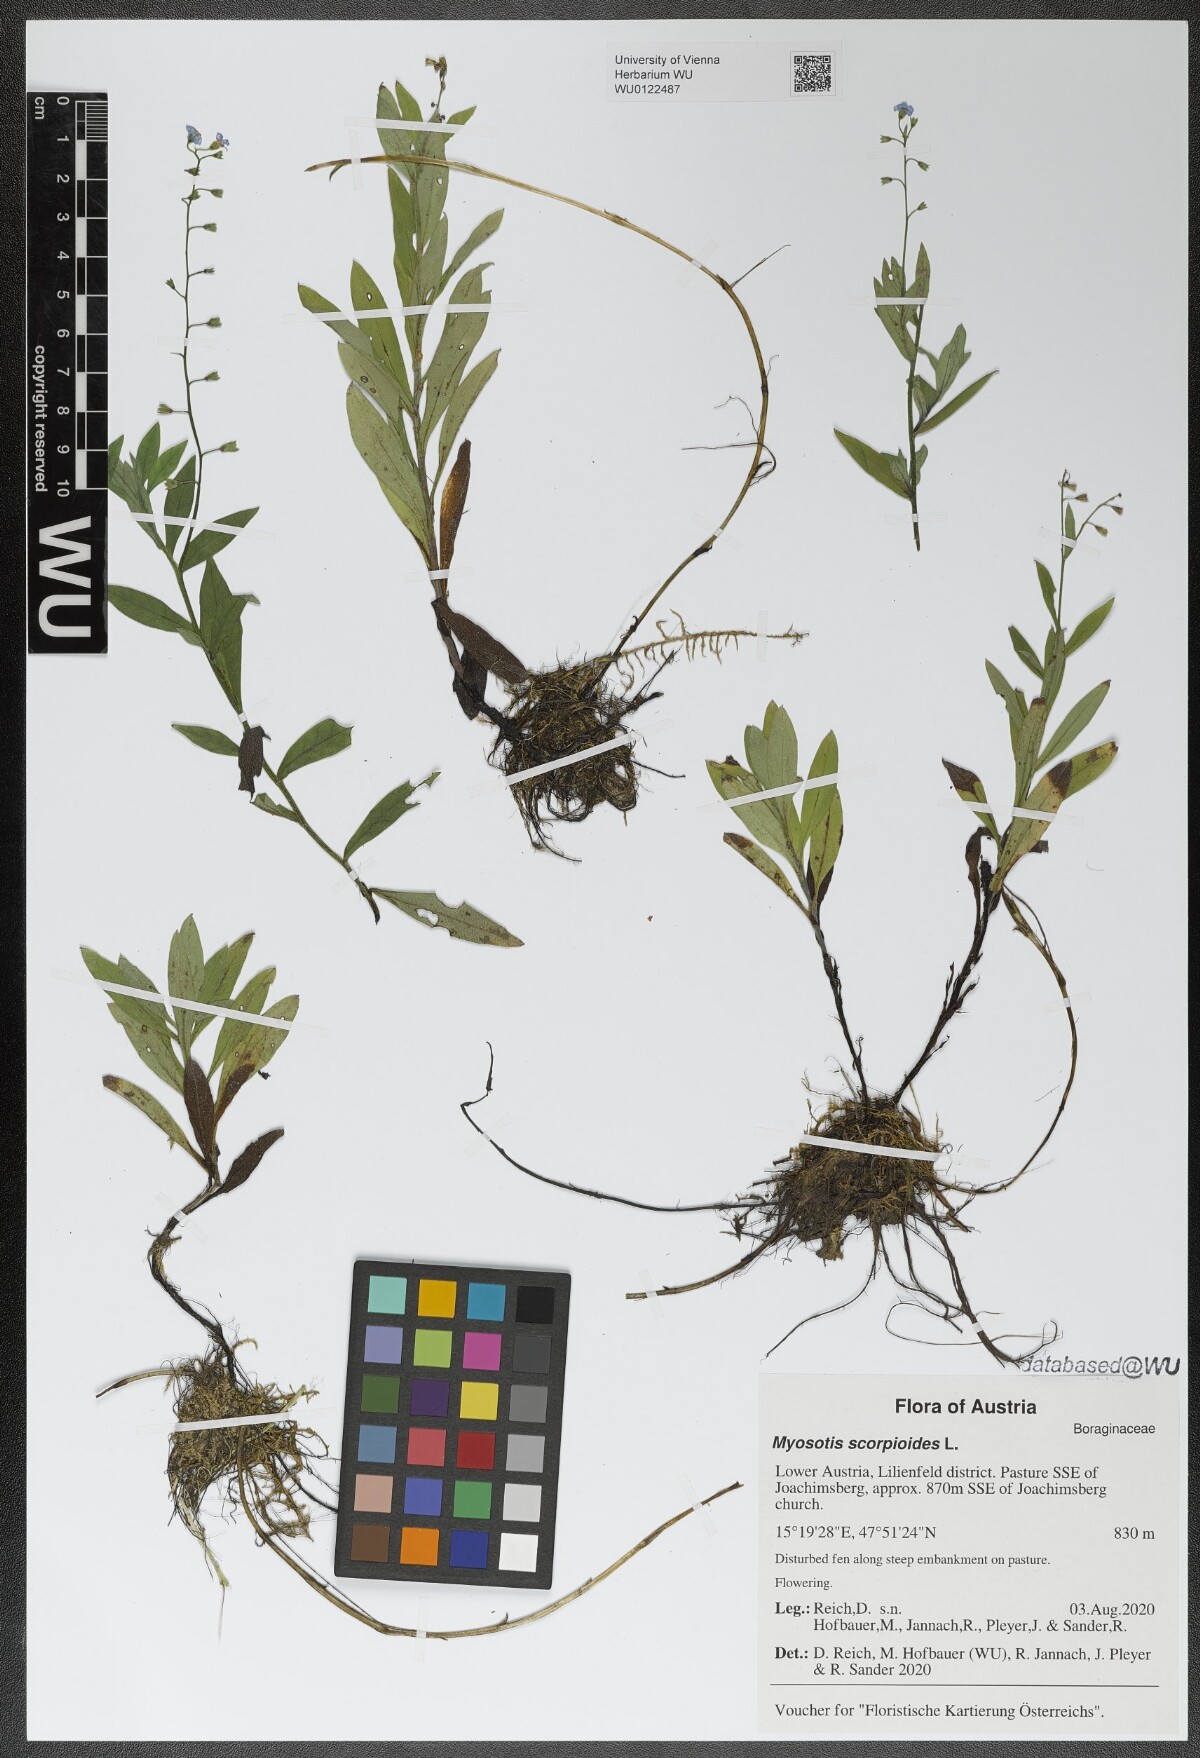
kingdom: Plantae
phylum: Tracheophyta
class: Magnoliopsida
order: Boraginales
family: Boraginaceae
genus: Myosotis
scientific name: Myosotis scorpioides
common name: Water forget-me-not
